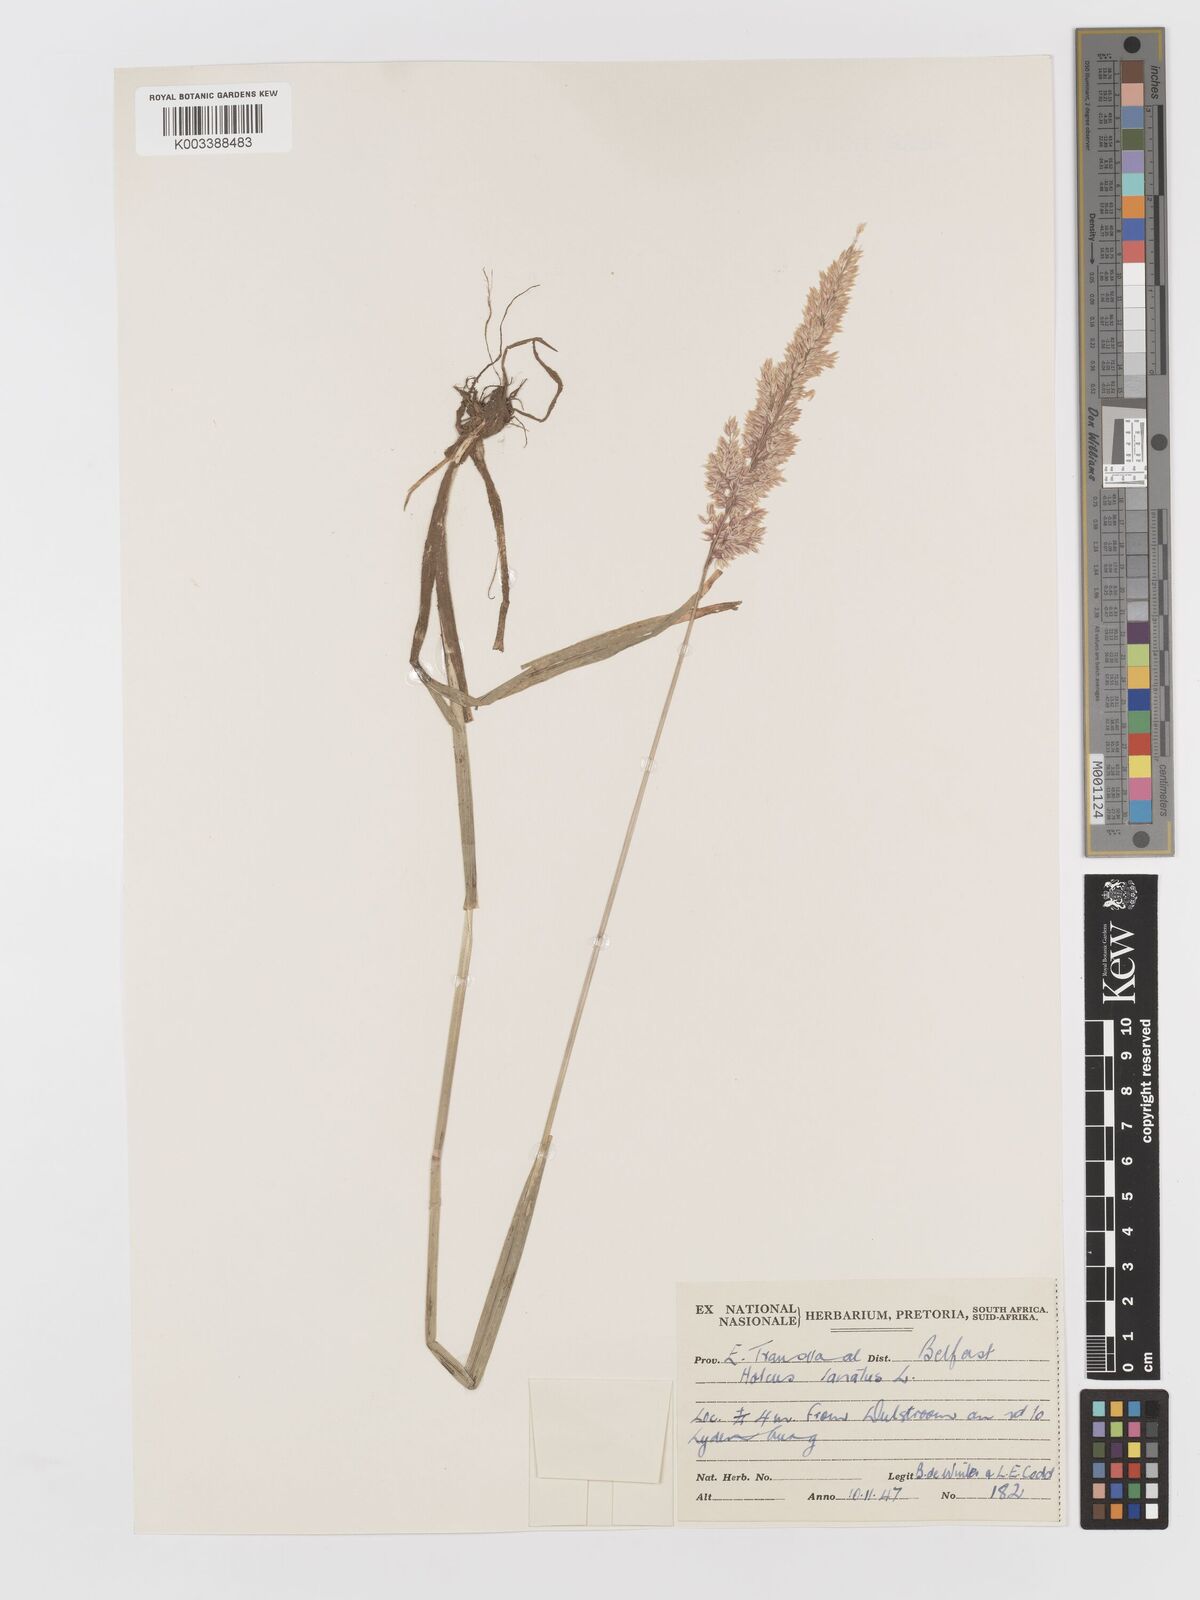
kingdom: Plantae
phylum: Tracheophyta
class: Liliopsida
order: Poales
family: Poaceae
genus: Holcus
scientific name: Holcus lanatus
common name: Yorkshire-fog
